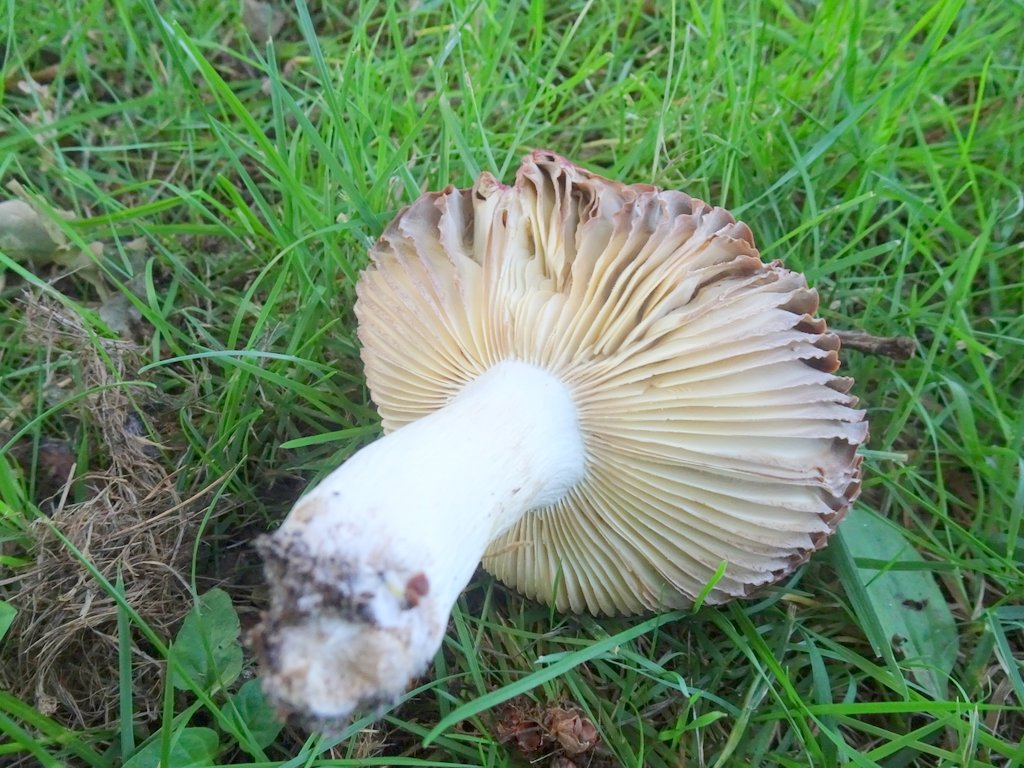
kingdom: Fungi
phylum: Basidiomycota
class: Agaricomycetes
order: Russulales
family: Russulaceae
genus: Russula
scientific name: Russula
